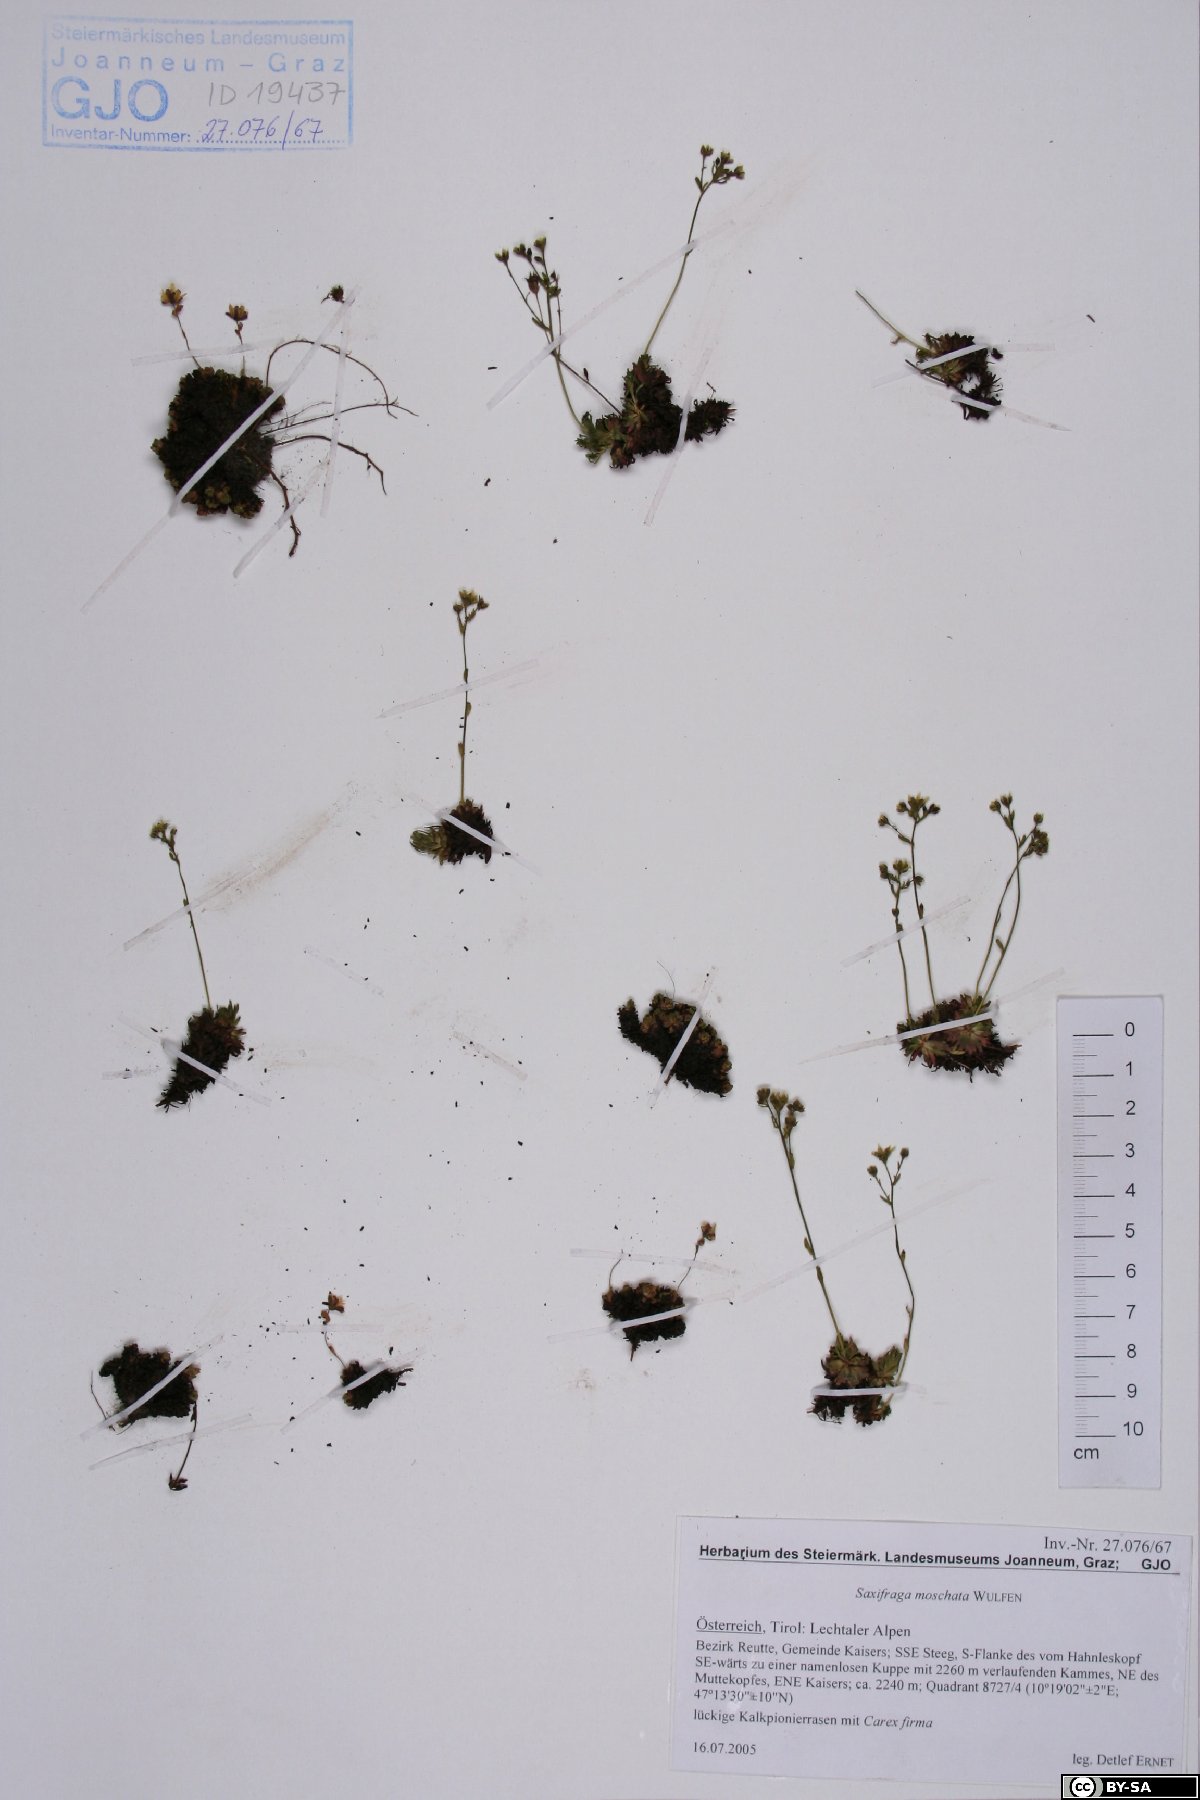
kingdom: Plantae
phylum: Tracheophyta
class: Magnoliopsida
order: Saxifragales
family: Saxifragaceae
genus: Saxifraga
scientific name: Saxifraga moschata
